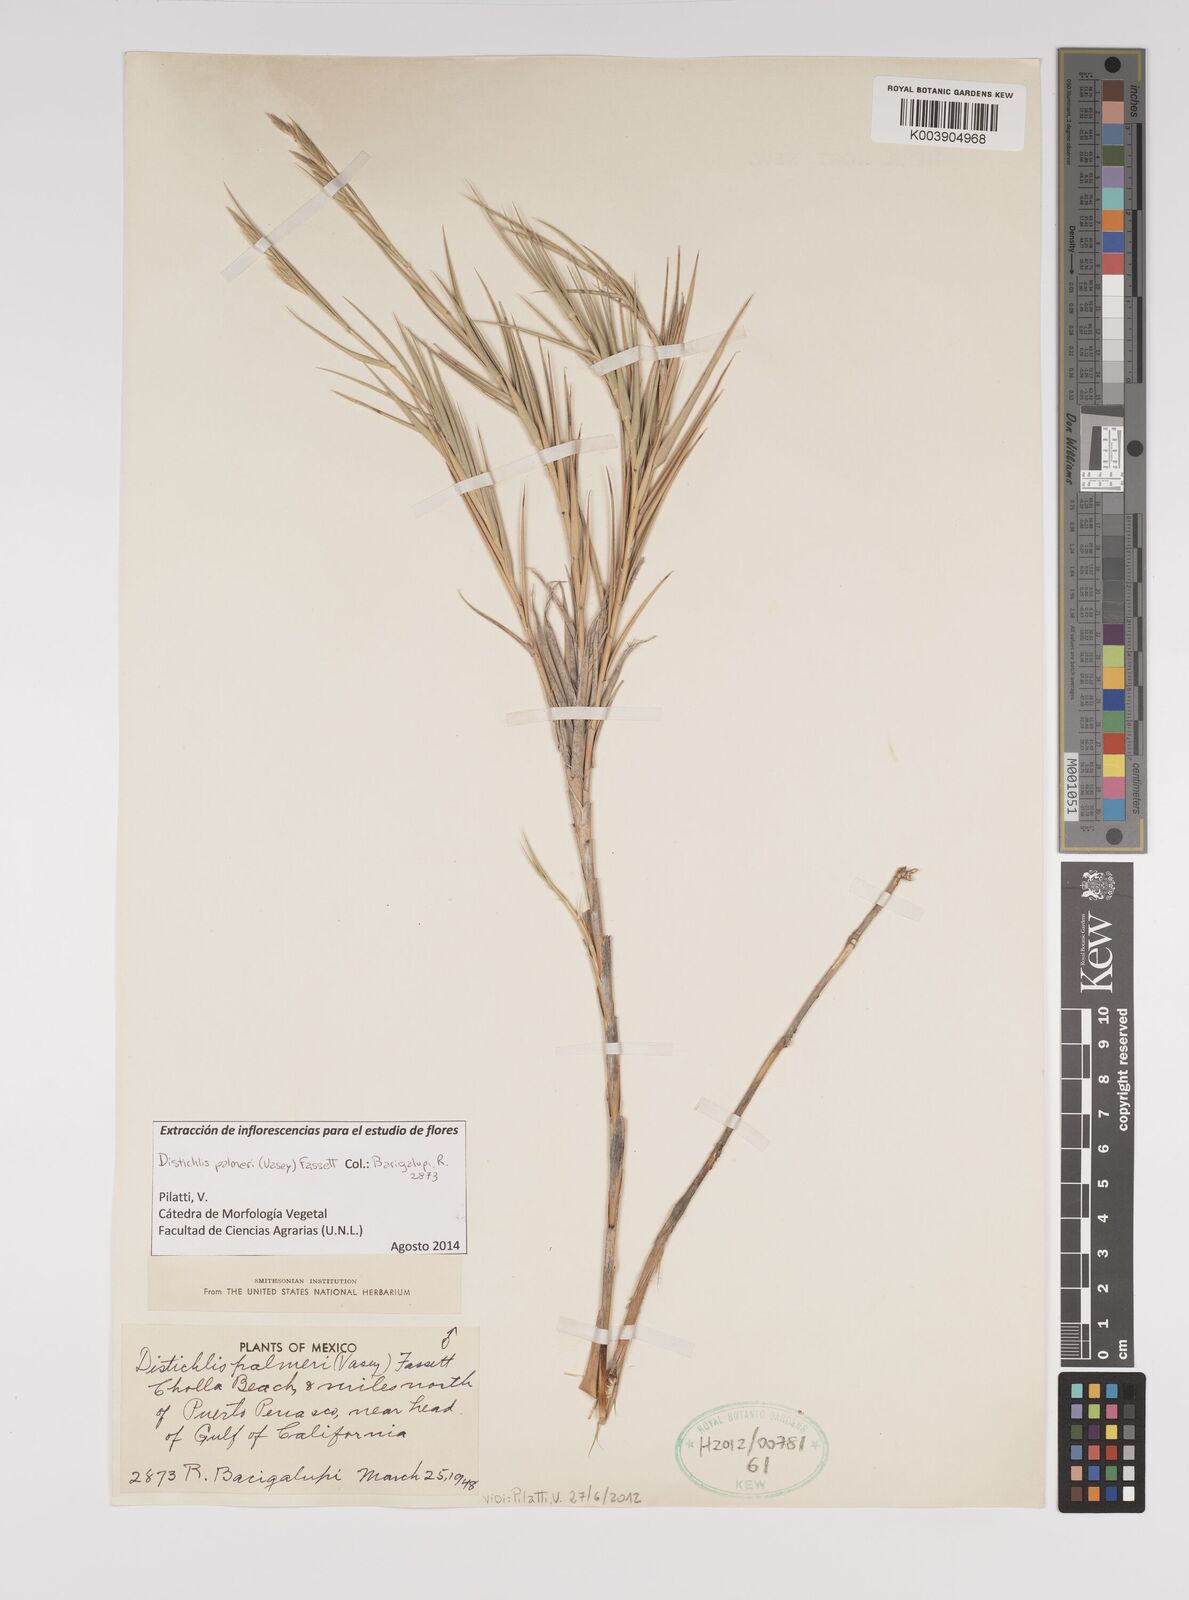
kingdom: Plantae
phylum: Tracheophyta
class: Liliopsida
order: Poales
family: Poaceae
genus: Distichlis
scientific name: Distichlis palmeri
